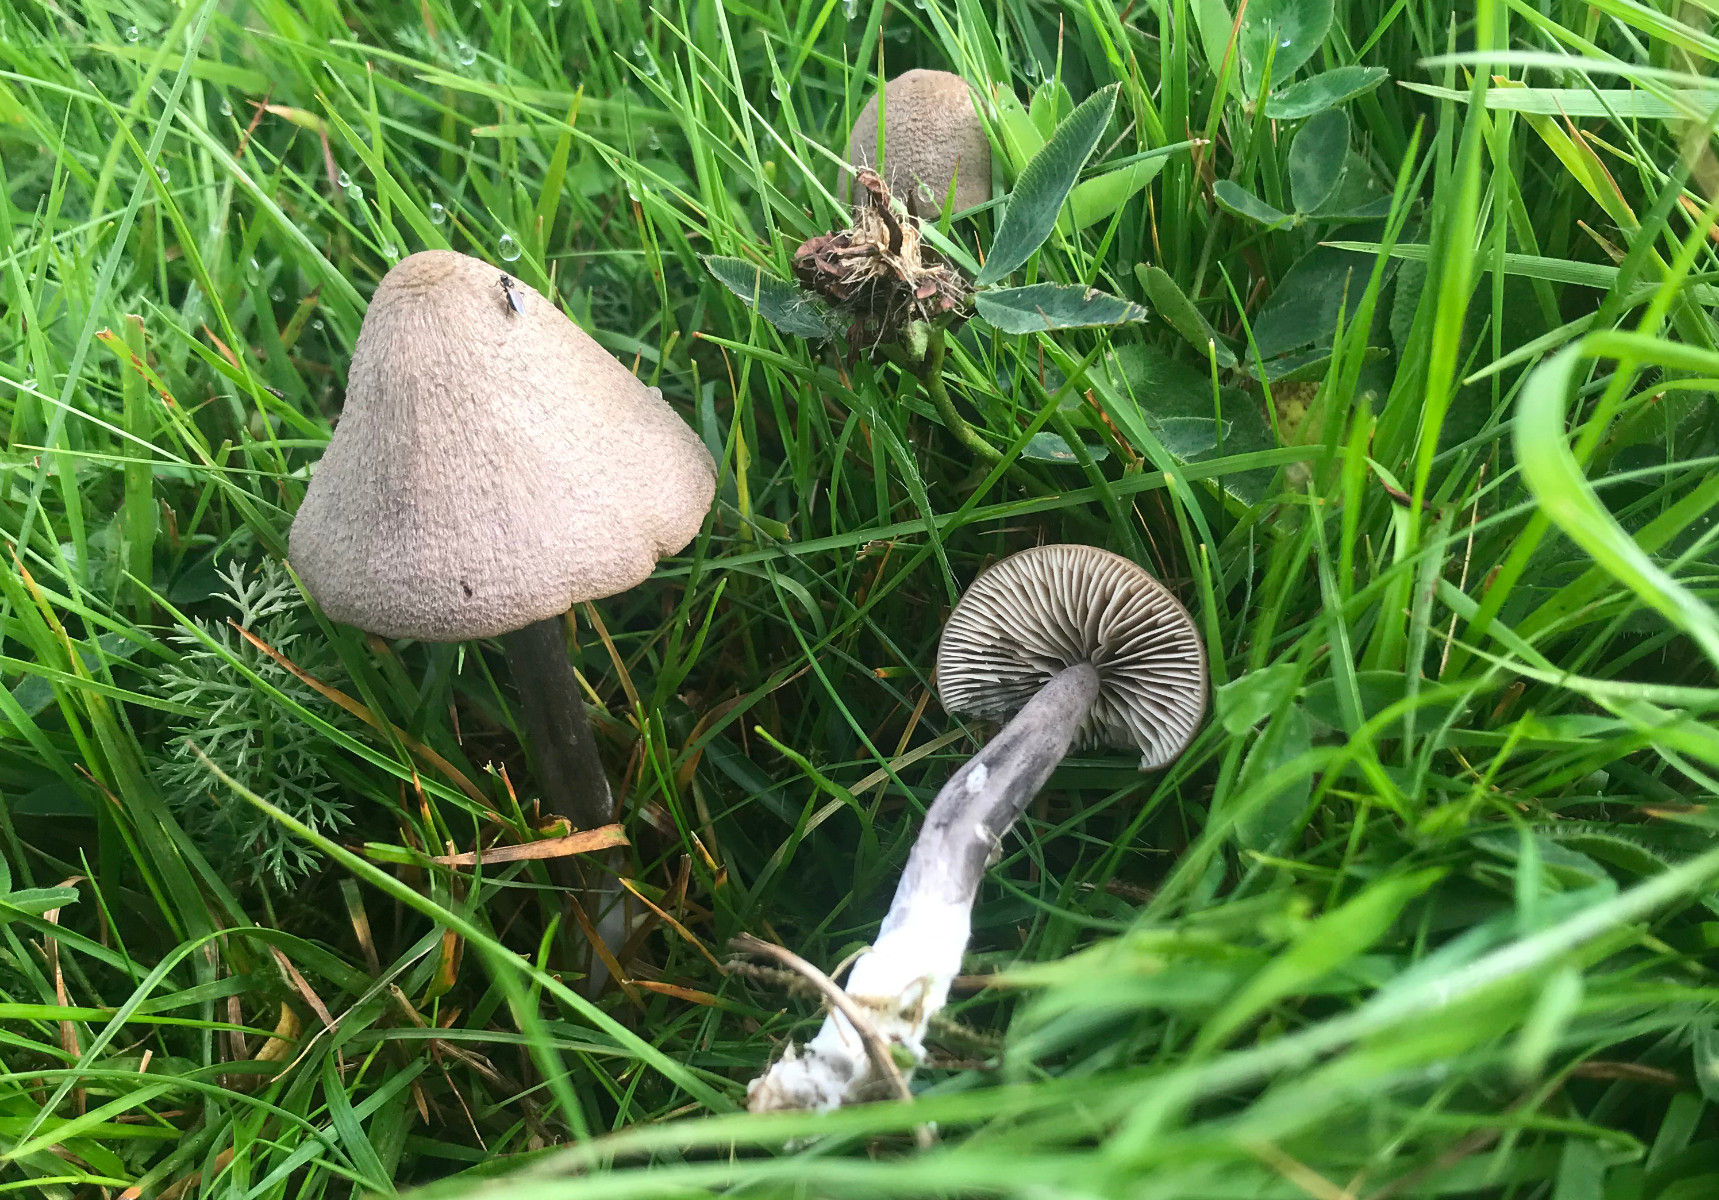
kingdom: Fungi
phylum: Basidiomycota
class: Agaricomycetes
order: Agaricales
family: Entolomataceae
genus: Entoloma
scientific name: Entoloma griseocyaneum
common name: gråblå rødblad
